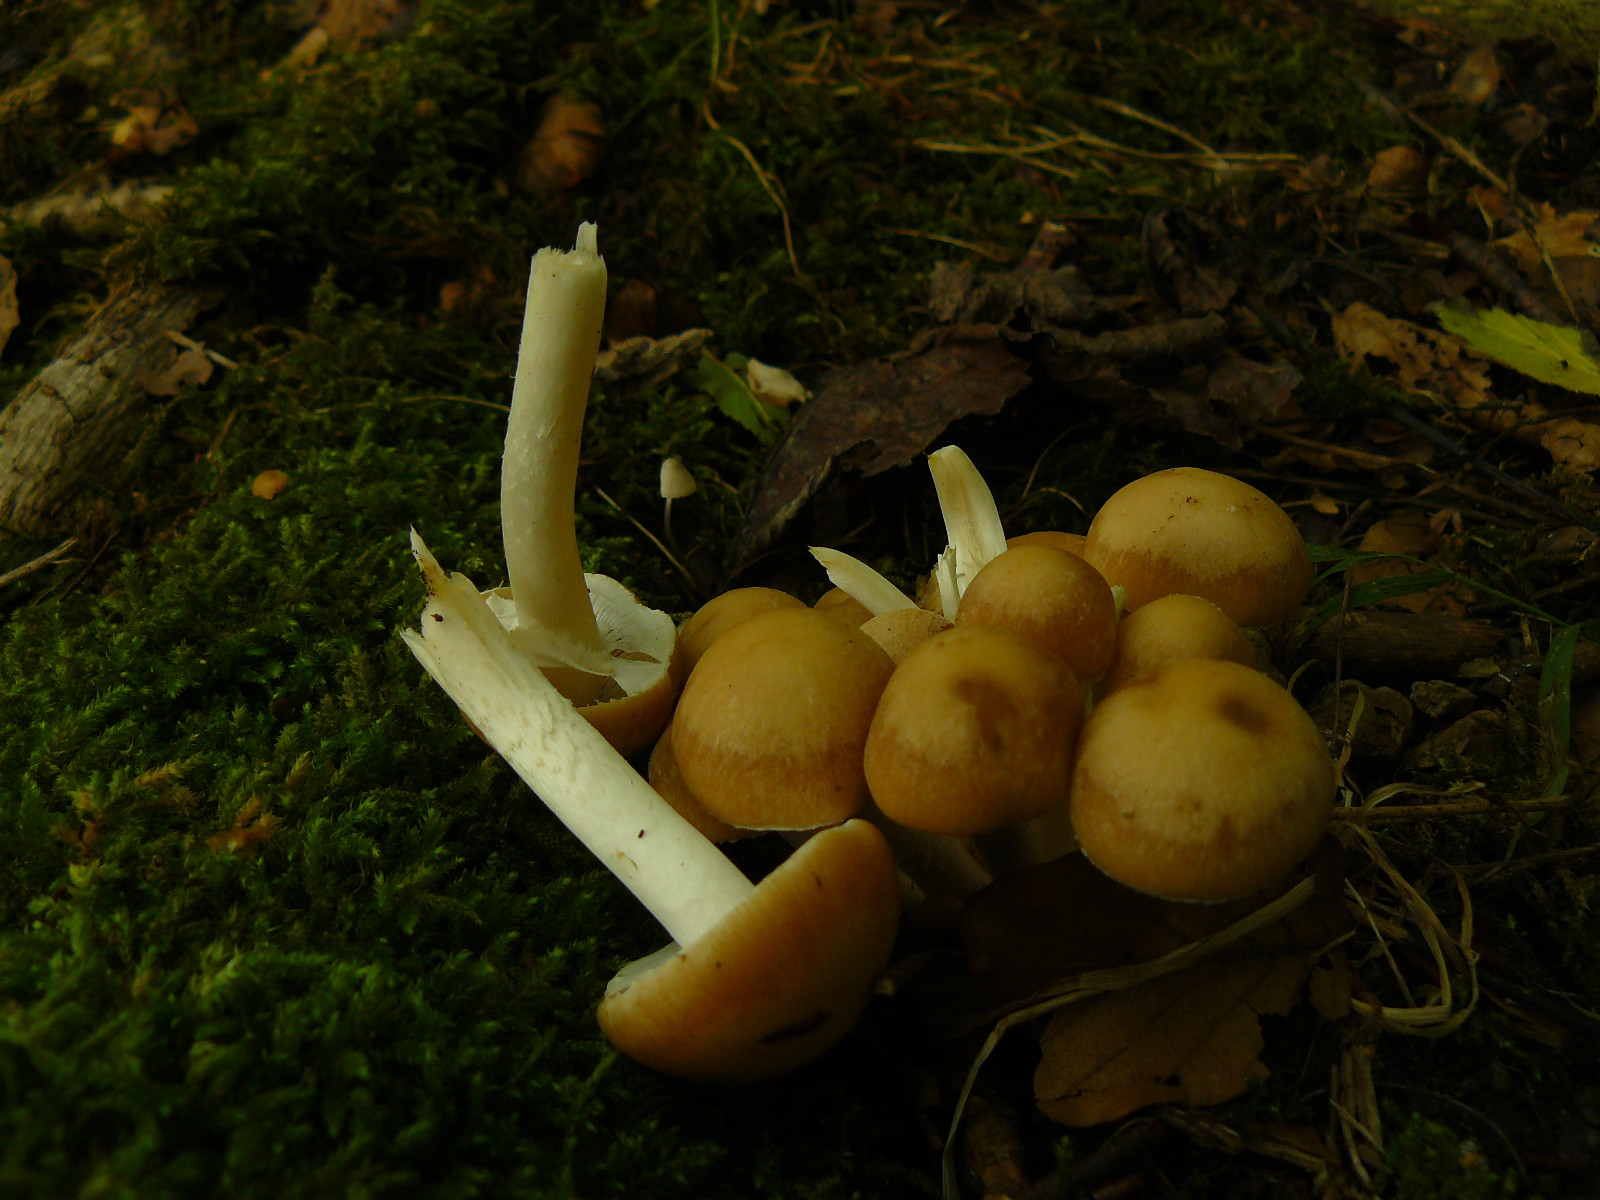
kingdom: Fungi
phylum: Basidiomycota
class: Agaricomycetes
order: Agaricales
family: Psathyrellaceae
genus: Psathyrella
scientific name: Psathyrella
